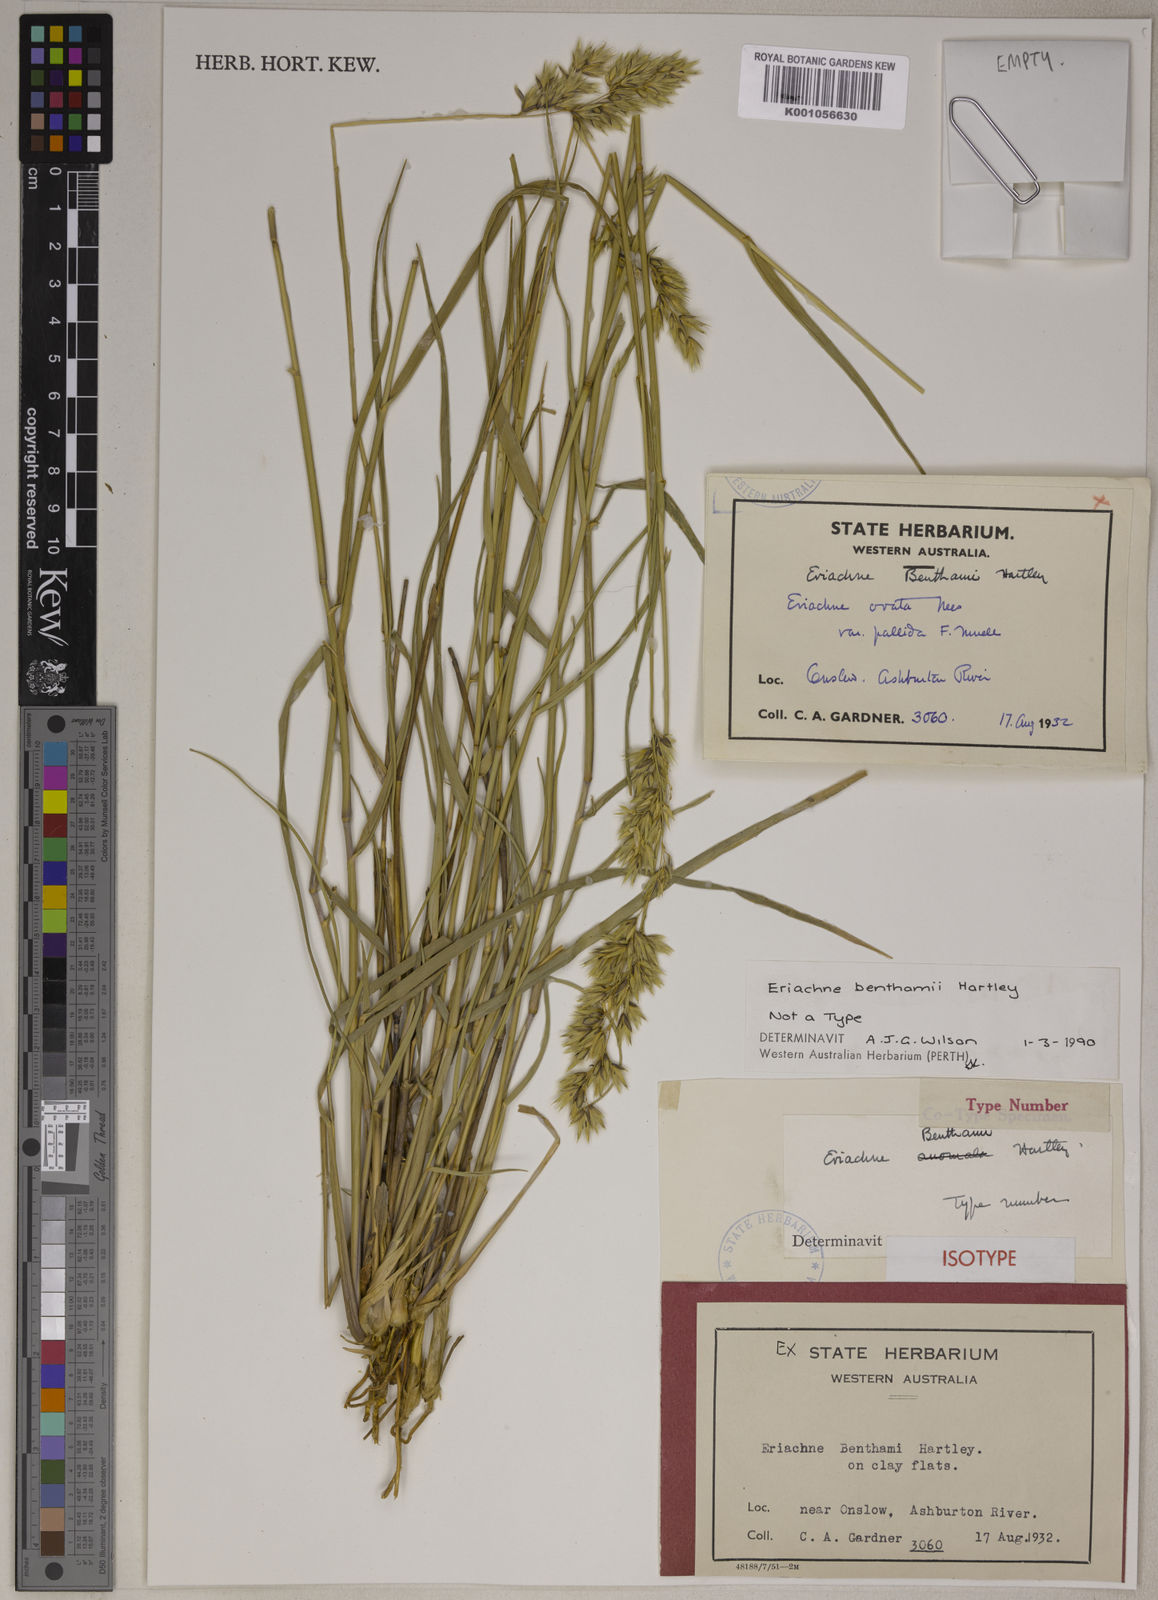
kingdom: Plantae
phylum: Tracheophyta
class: Liliopsida
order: Poales
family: Poaceae
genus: Eriachne
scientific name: Eriachne benthamii
